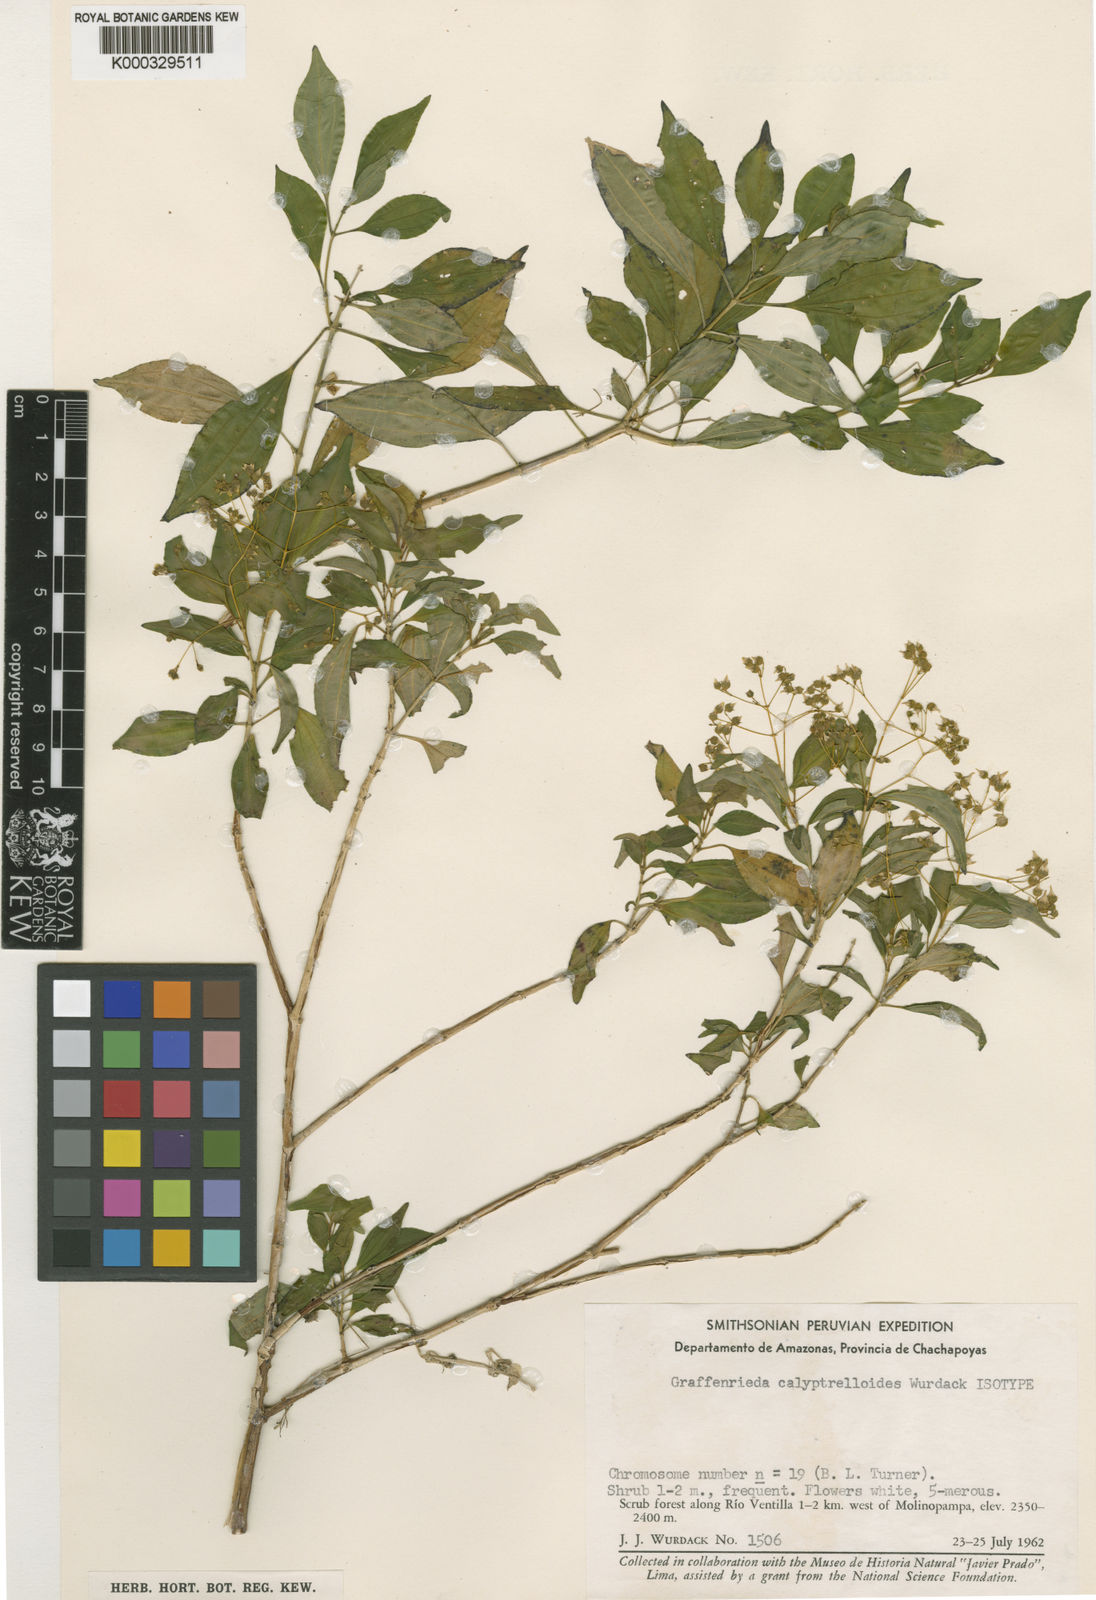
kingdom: Plantae
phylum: Tracheophyta
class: Magnoliopsida
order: Myrtales
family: Melastomataceae
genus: Graffenrieda
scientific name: Graffenrieda calyptrelloides
